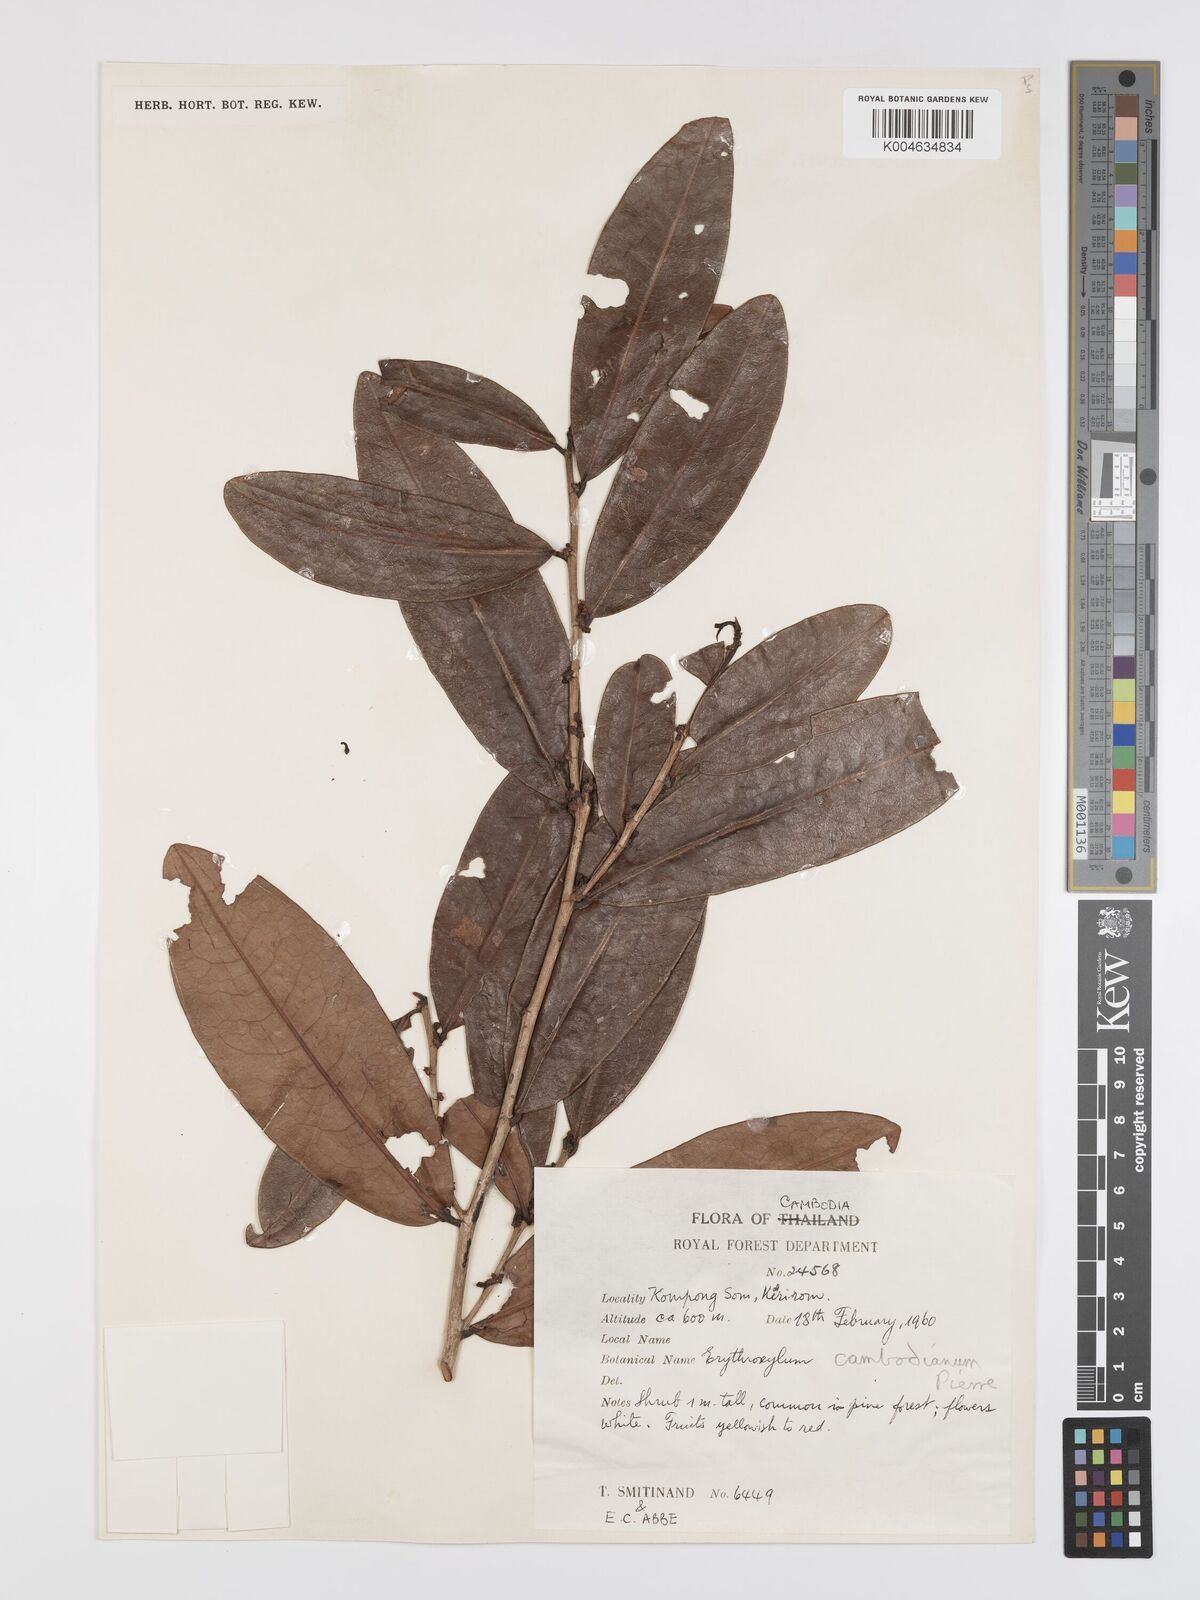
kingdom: Plantae
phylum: Tracheophyta
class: Magnoliopsida
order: Malpighiales
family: Erythroxylaceae
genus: Erythroxylum
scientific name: Erythroxylum cambodianum
